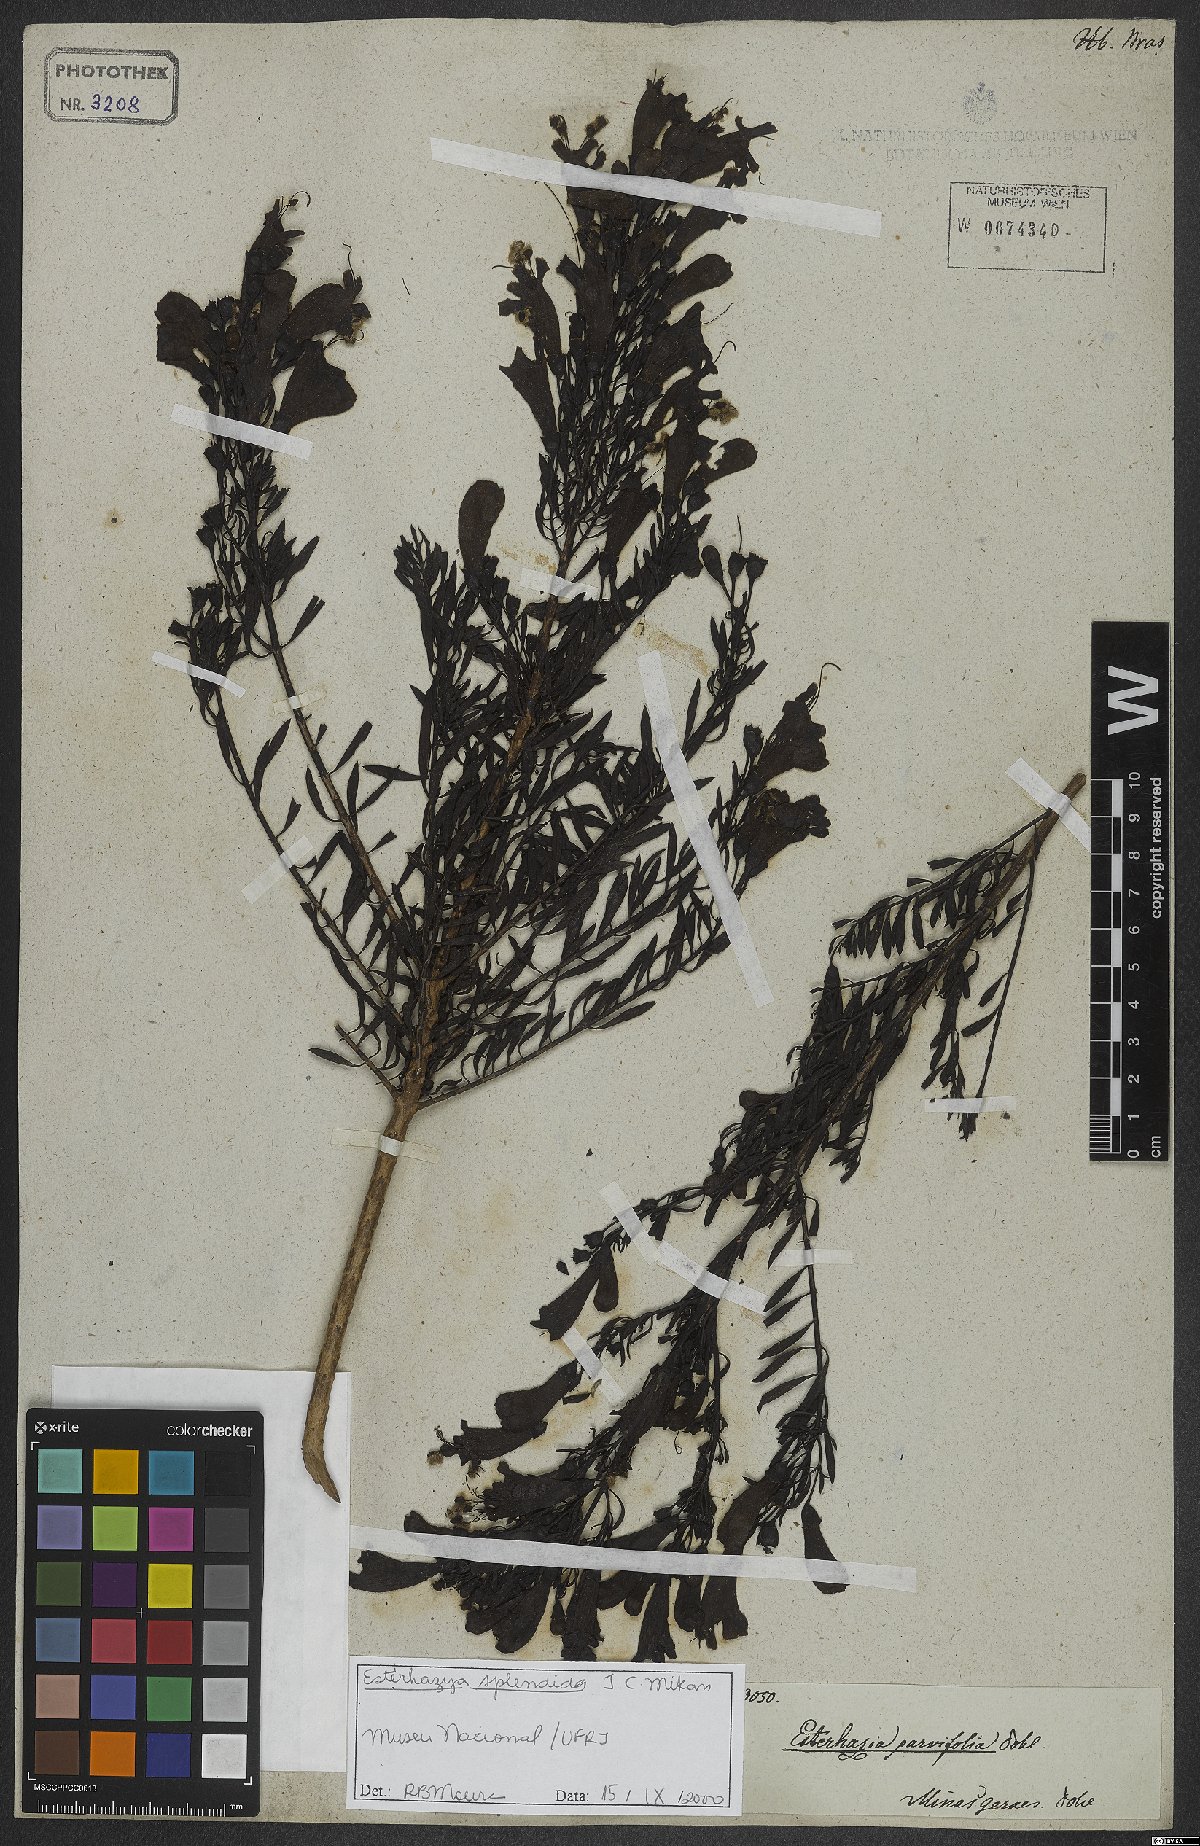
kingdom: Plantae
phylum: Tracheophyta
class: Magnoliopsida
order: Lamiales
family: Orobanchaceae
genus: Esterhazya
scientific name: Esterhazya splendida
